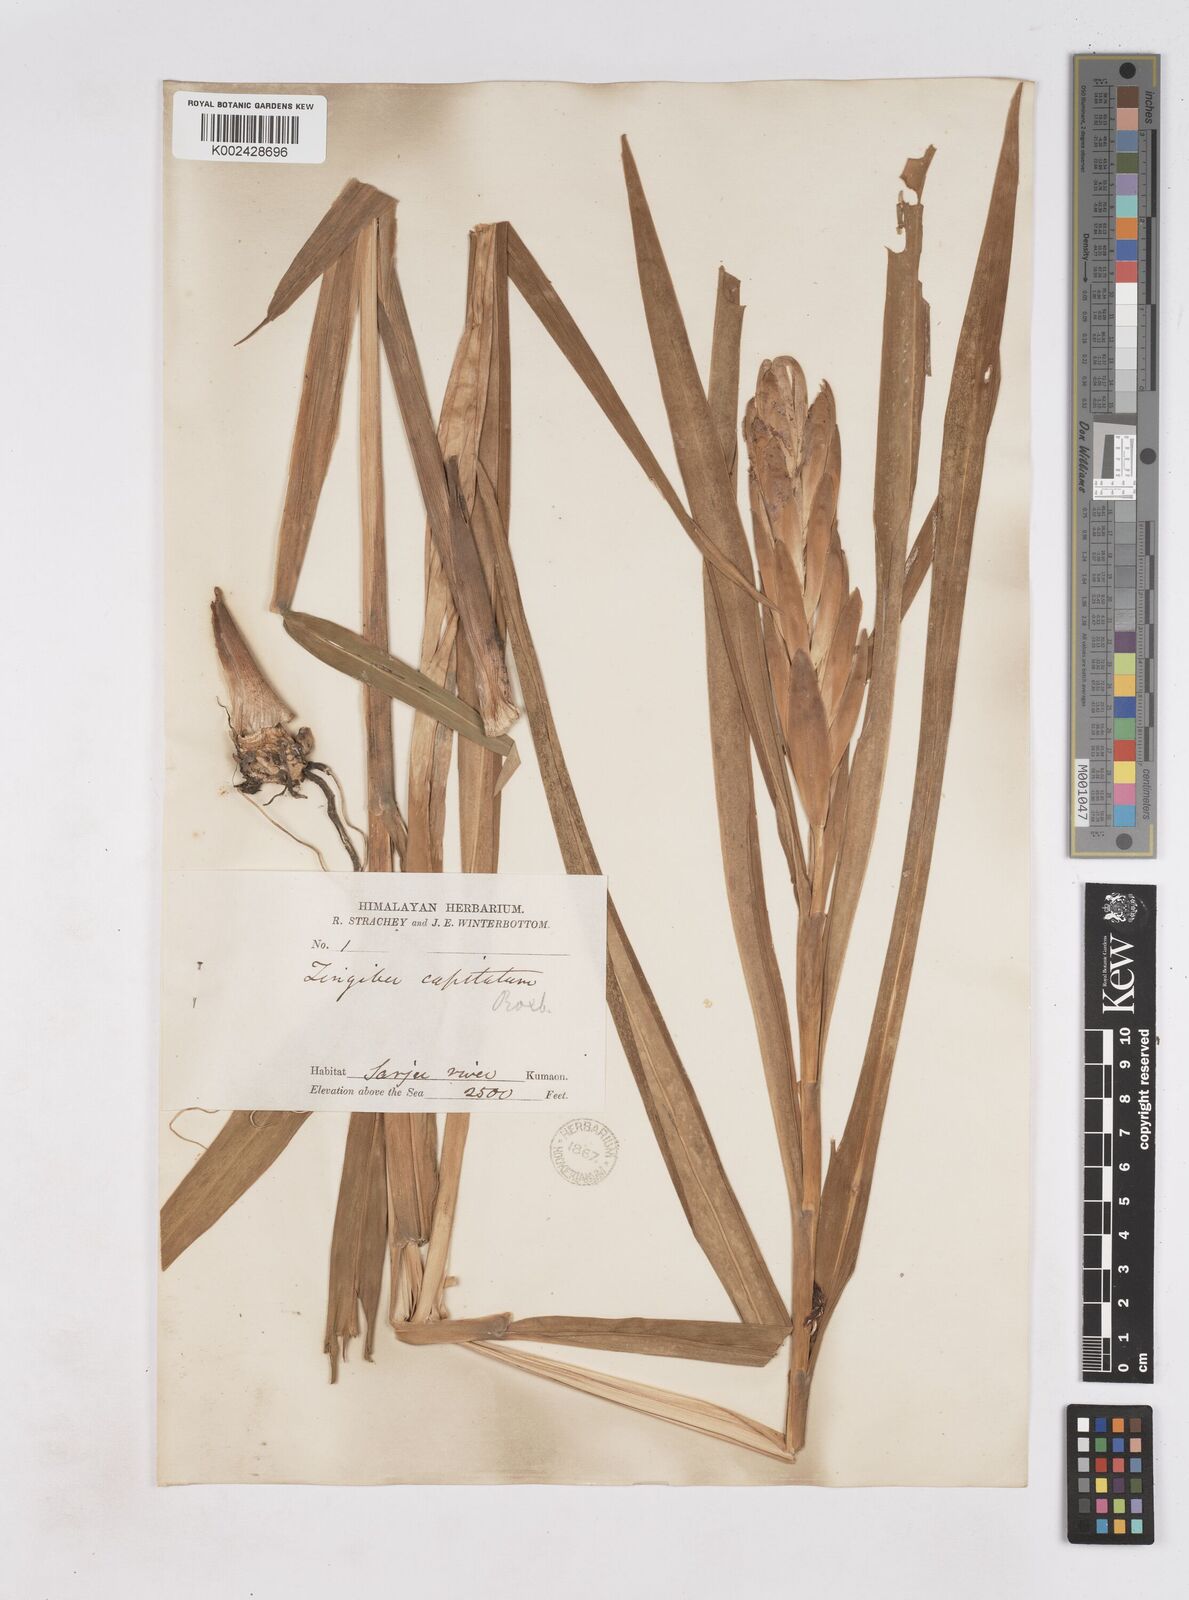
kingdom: Plantae
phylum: Tracheophyta
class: Liliopsida
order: Zingiberales
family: Zingiberaceae
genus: Zingiber
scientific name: Zingiber capitatum
